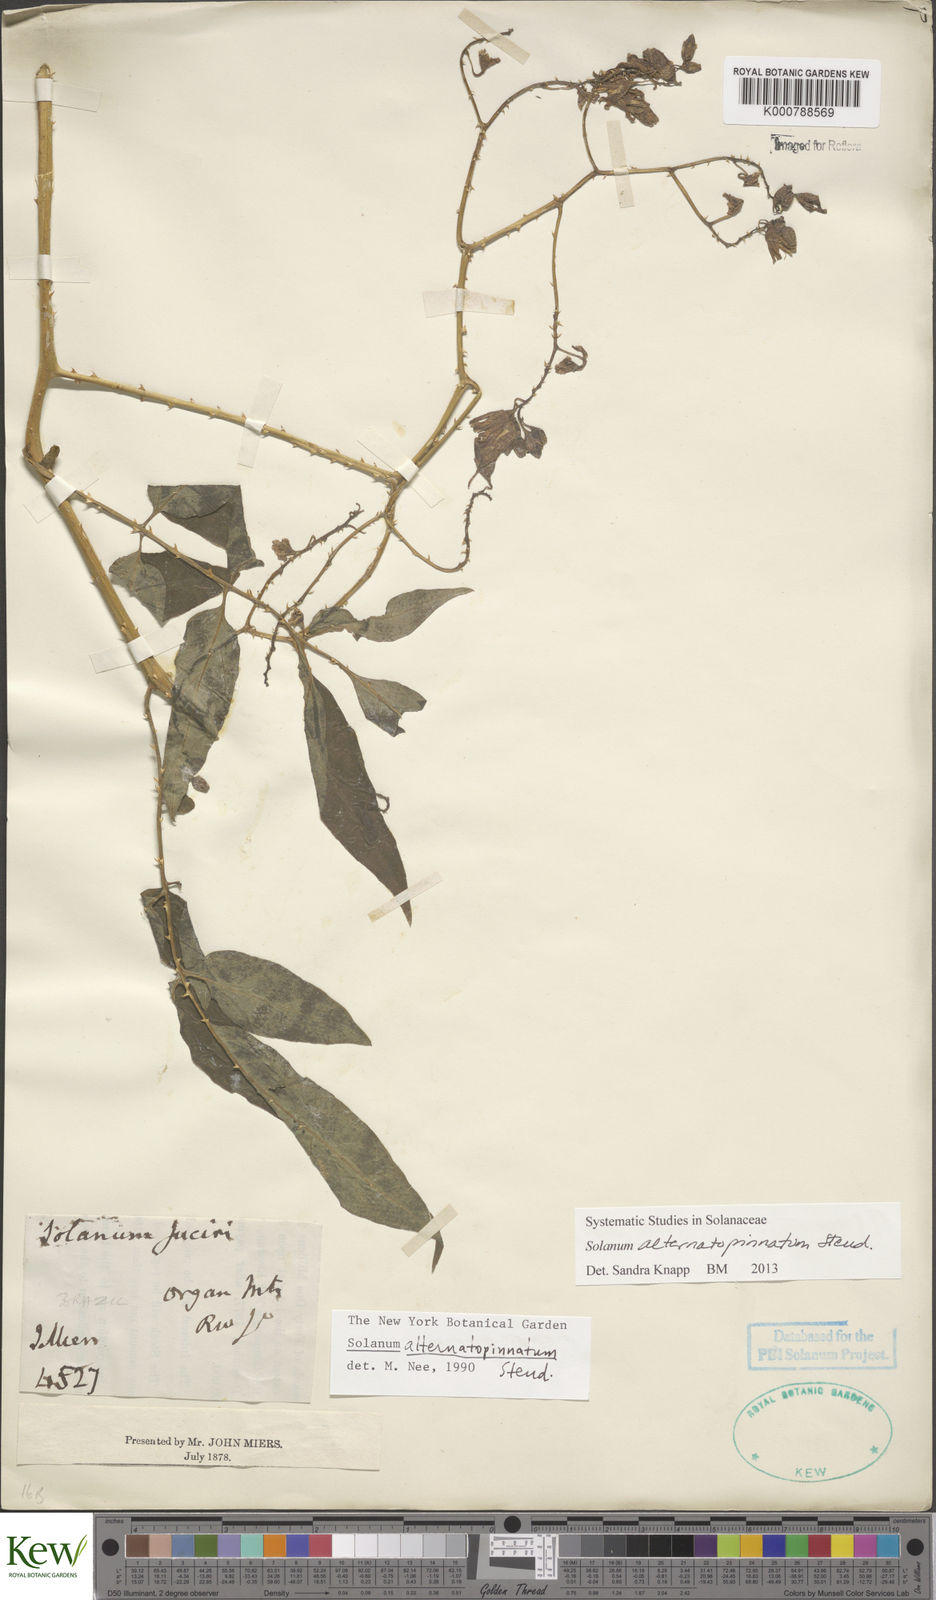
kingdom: Plantae
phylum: Tracheophyta
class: Magnoliopsida
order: Solanales
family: Solanaceae
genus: Solanum
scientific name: Solanum alternatopinnatum
